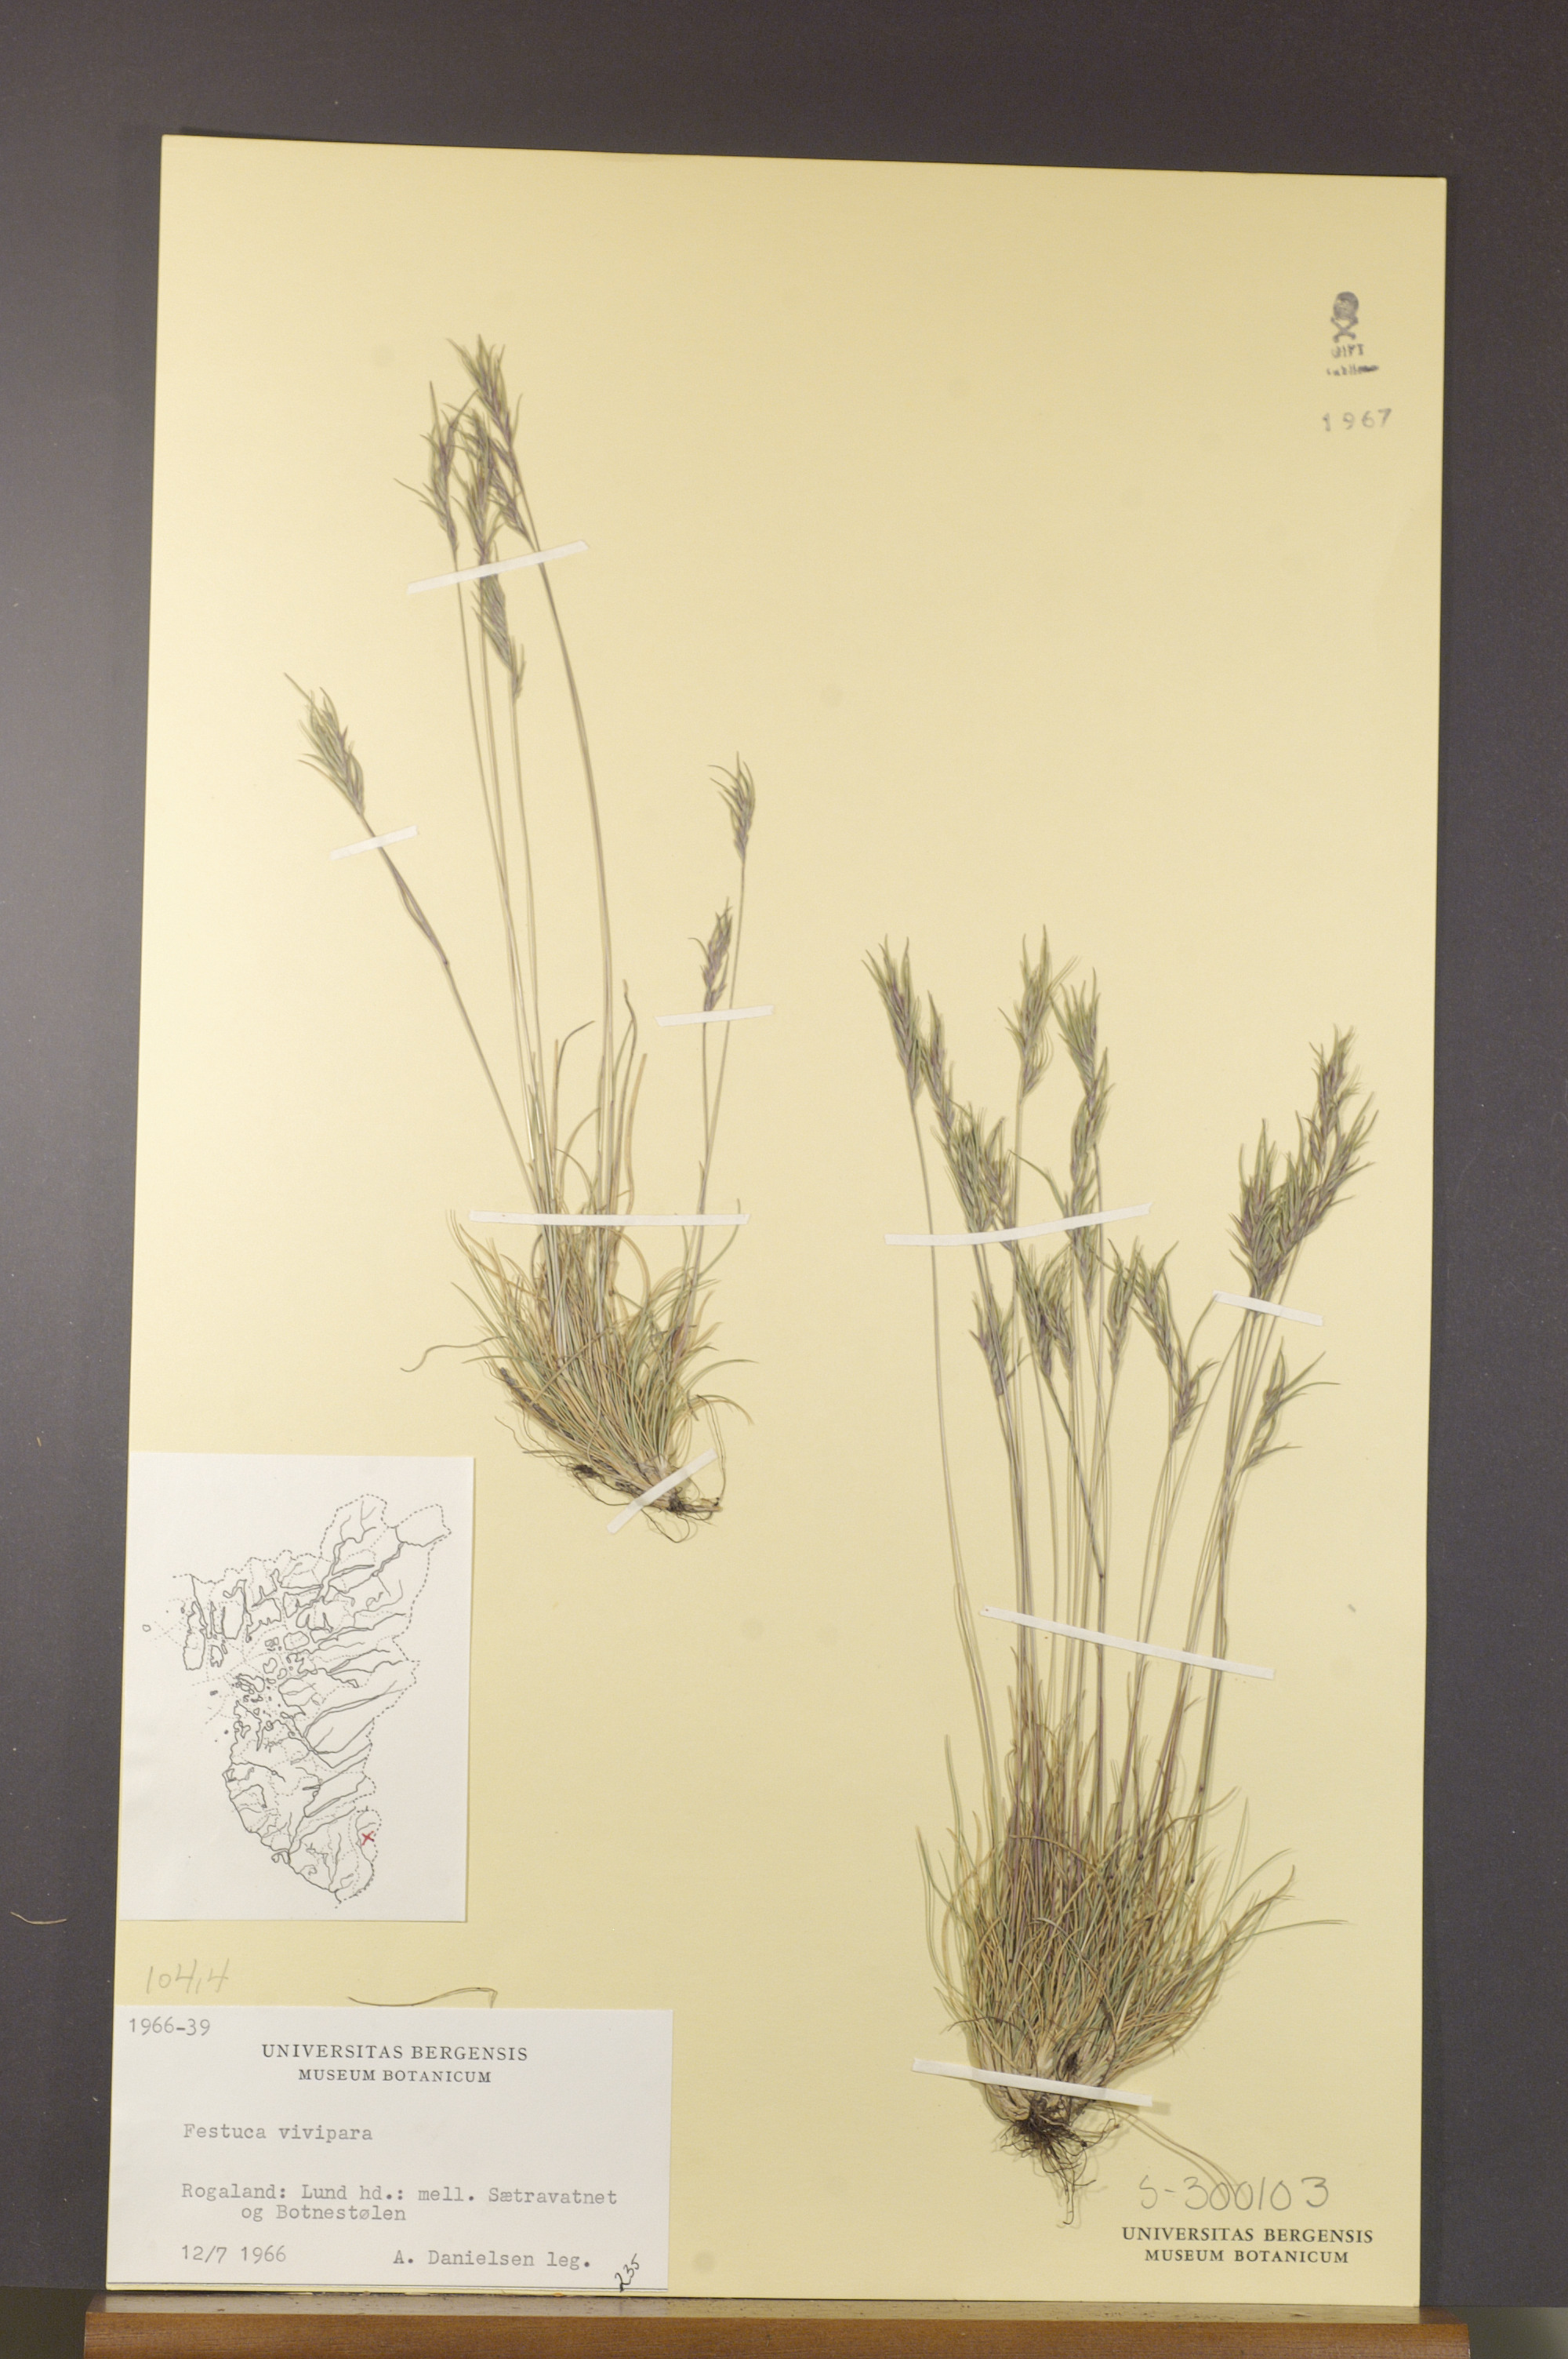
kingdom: Plantae
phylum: Tracheophyta
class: Liliopsida
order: Poales
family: Poaceae
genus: Festuca
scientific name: Festuca vivipara
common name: Viviparous sheep's-fescue
